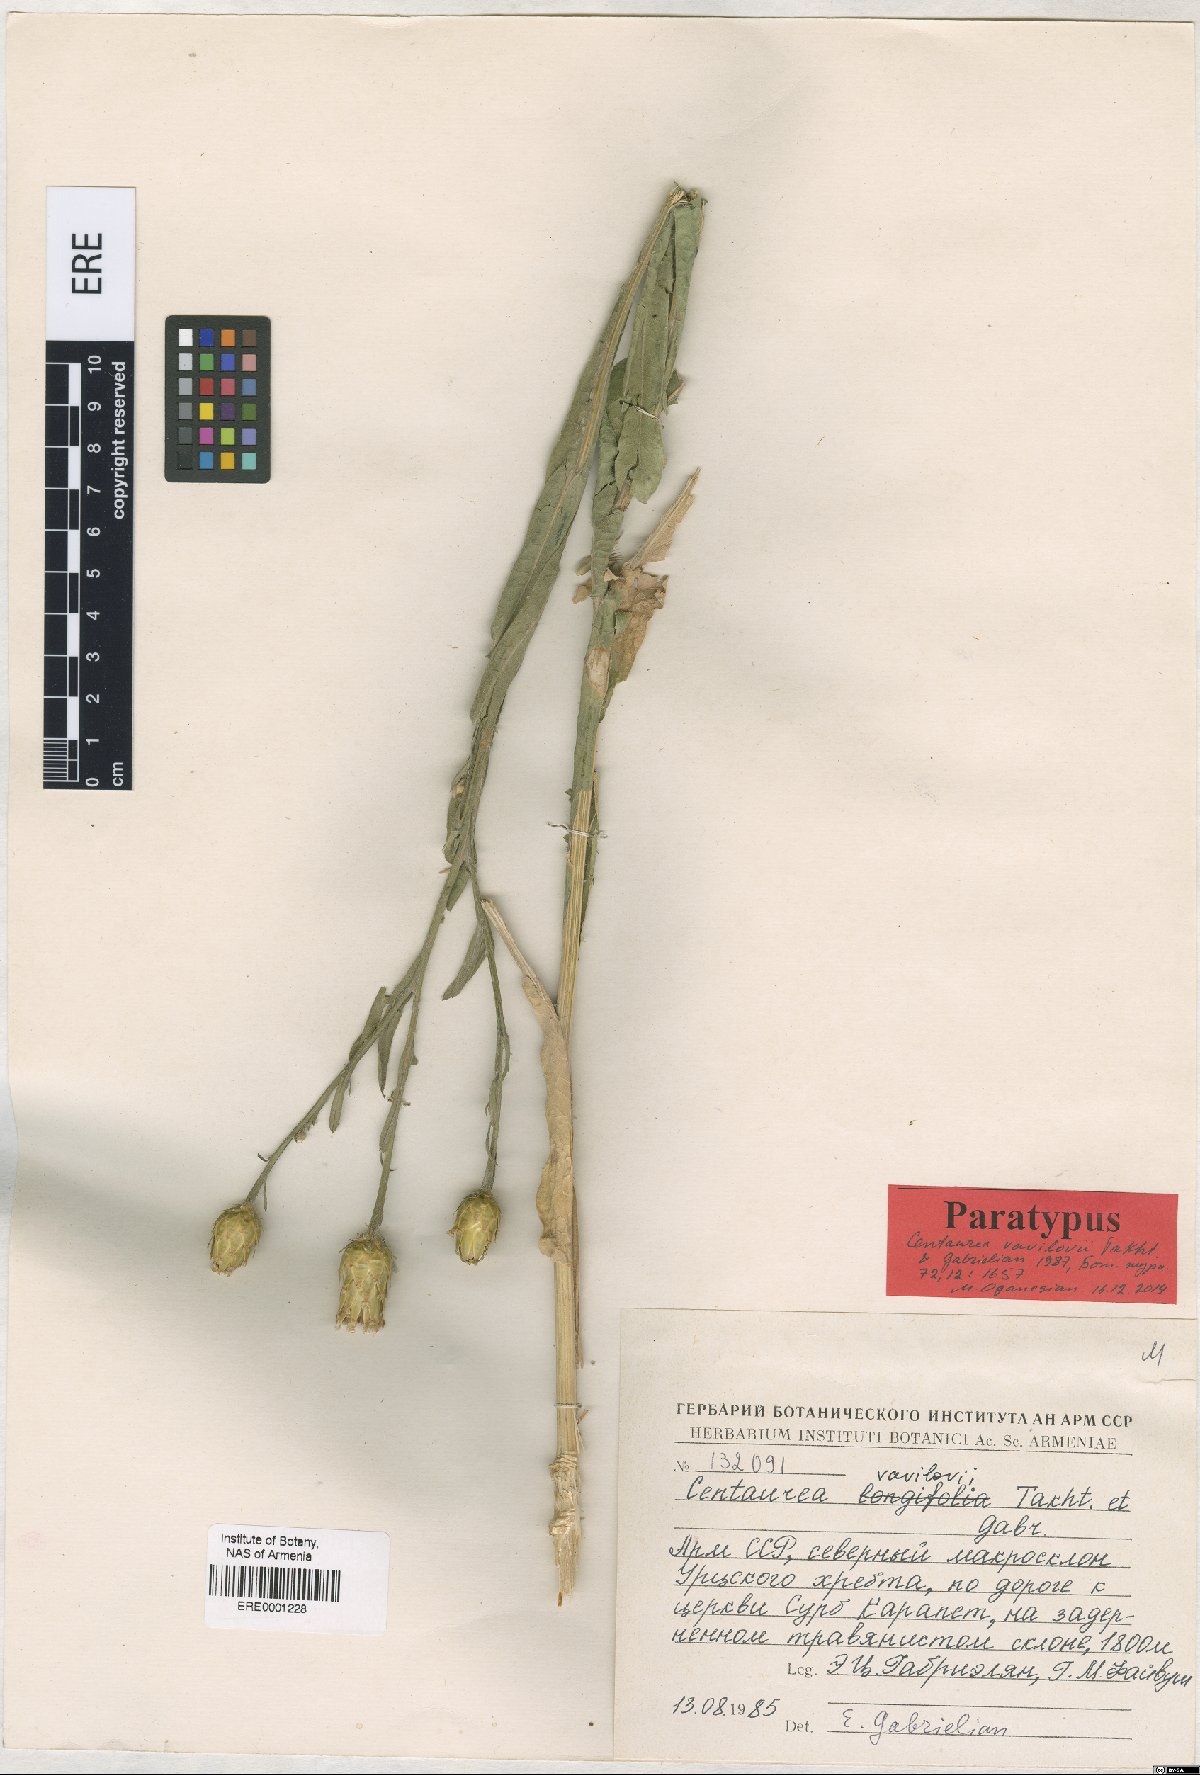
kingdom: Plantae
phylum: Tracheophyta
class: Magnoliopsida
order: Asterales
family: Asteraceae
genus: Centaurea
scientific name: Centaurea vavilovii
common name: Vavilov's centaury
